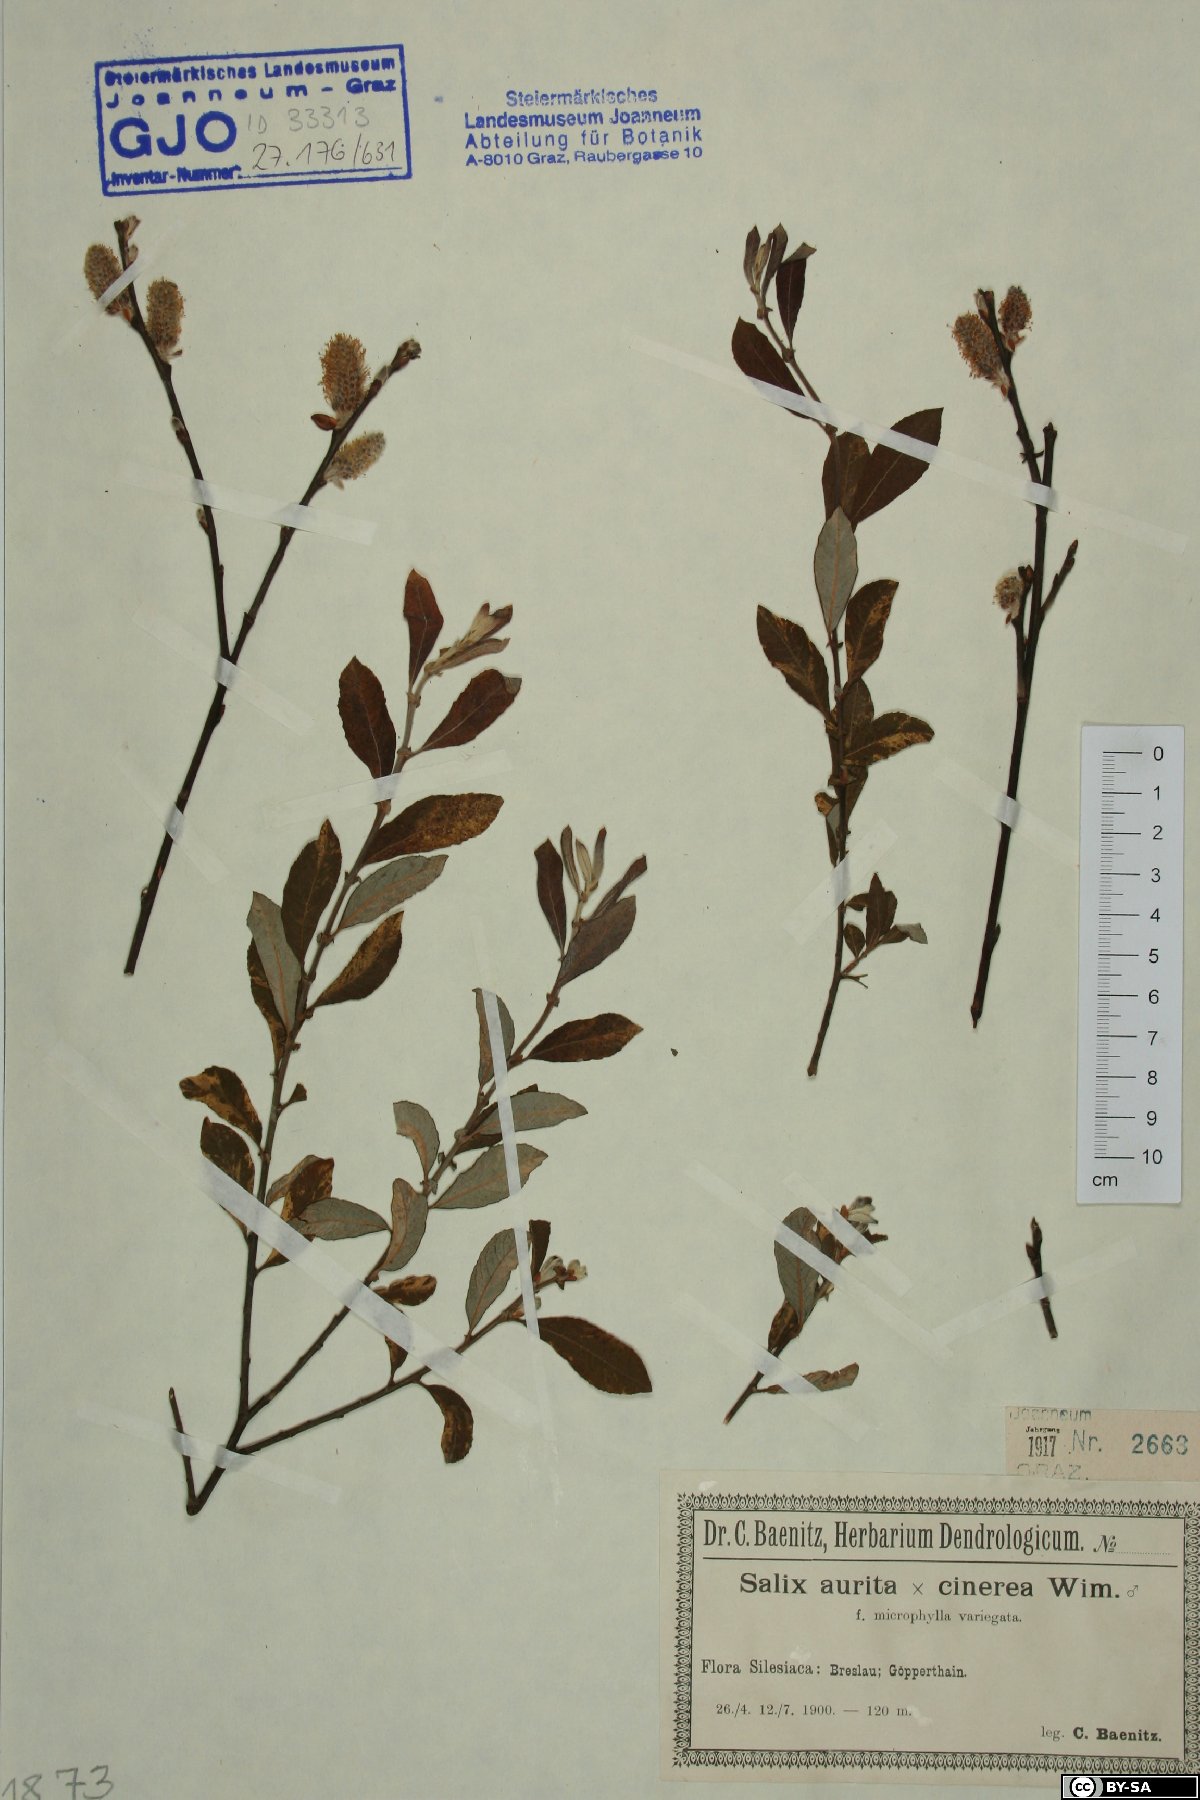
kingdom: Plantae
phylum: Tracheophyta
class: Magnoliopsida
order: Malpighiales
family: Salicaceae
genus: Salix
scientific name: Salix aurita
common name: Eared willow
